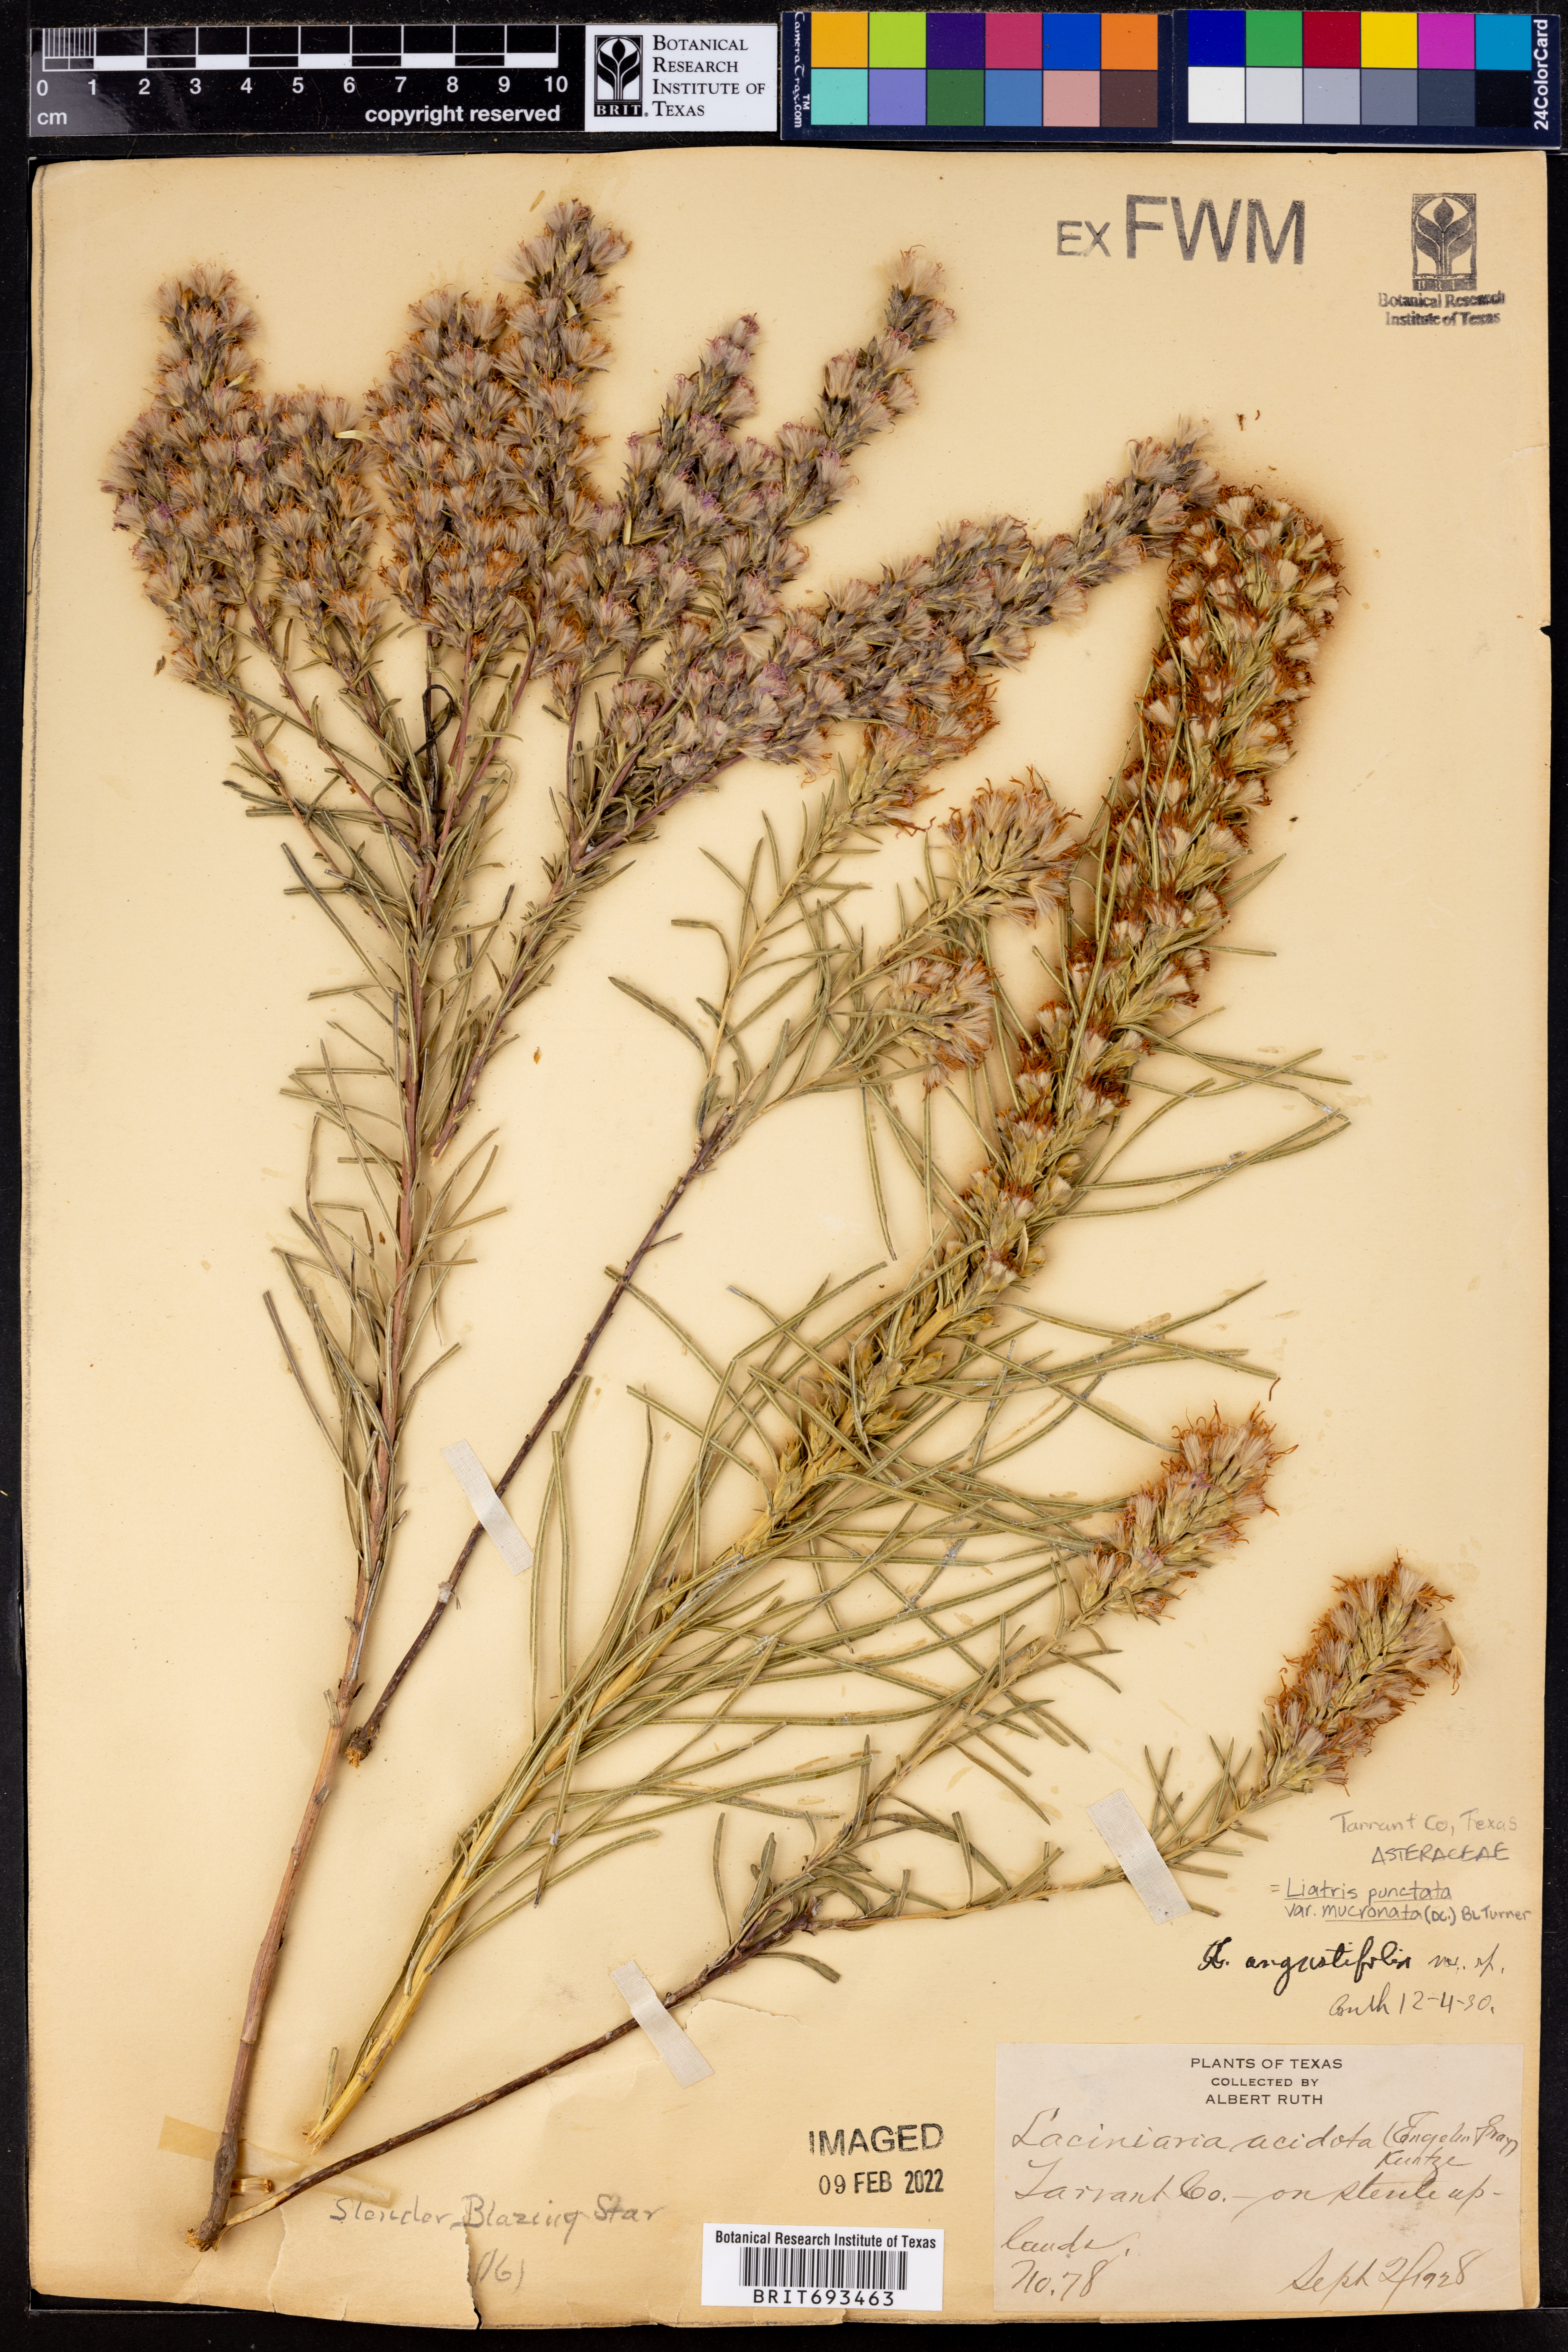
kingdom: Plantae
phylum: Tracheophyta
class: Magnoliopsida
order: Asterales
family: Asteraceae
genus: Liatris
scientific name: Liatris punctata
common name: Dotted gayfeather
